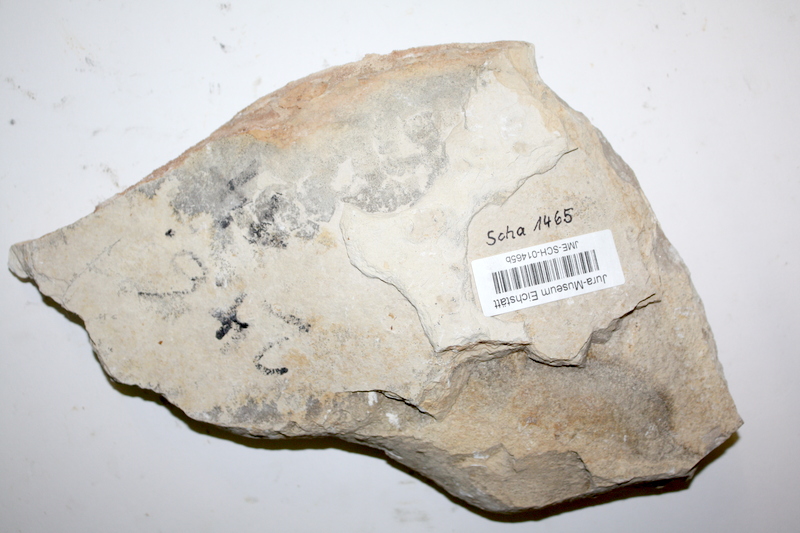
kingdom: Animalia
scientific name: Animalia
